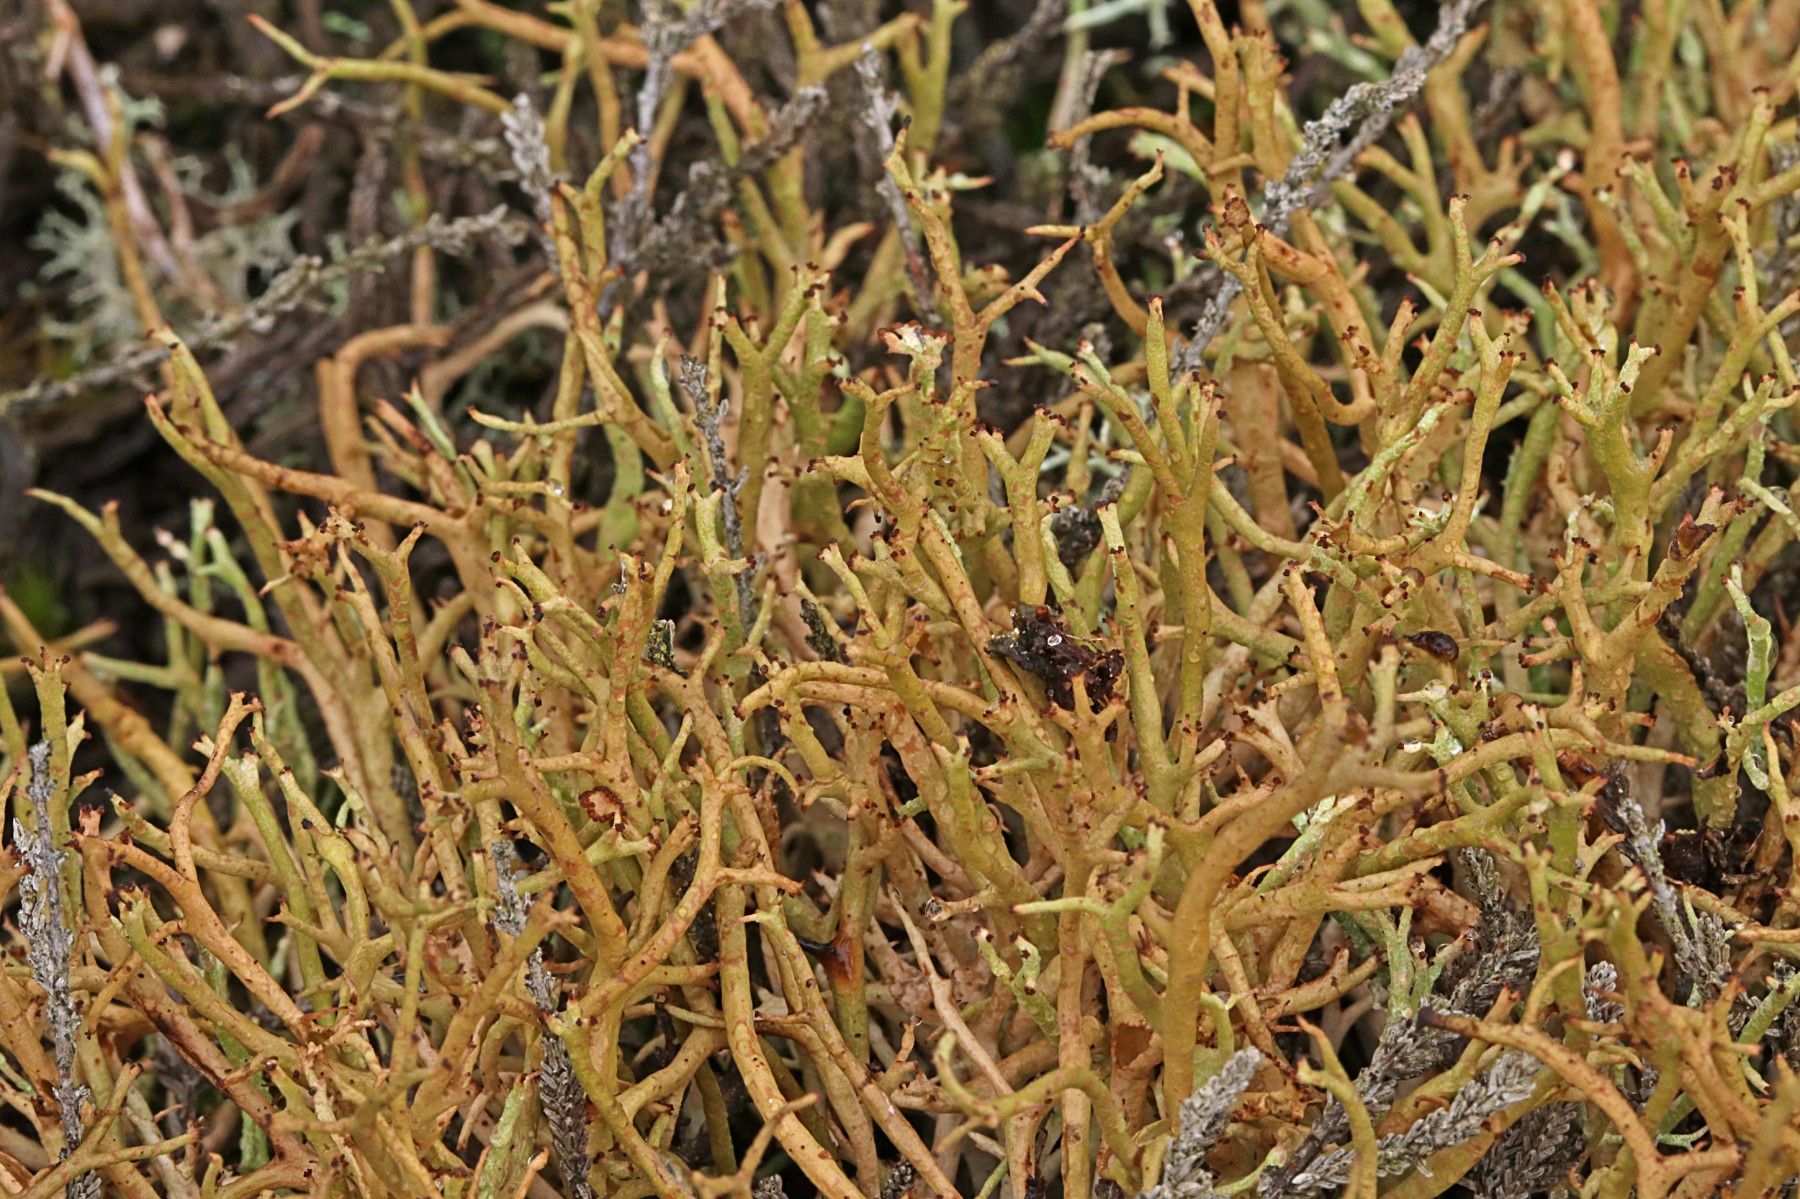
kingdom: Fungi
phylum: Ascomycota
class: Lecanoromycetes
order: Lecanorales
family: Cladoniaceae
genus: Cladonia
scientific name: Cladonia gracilis
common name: slank bægerlav
